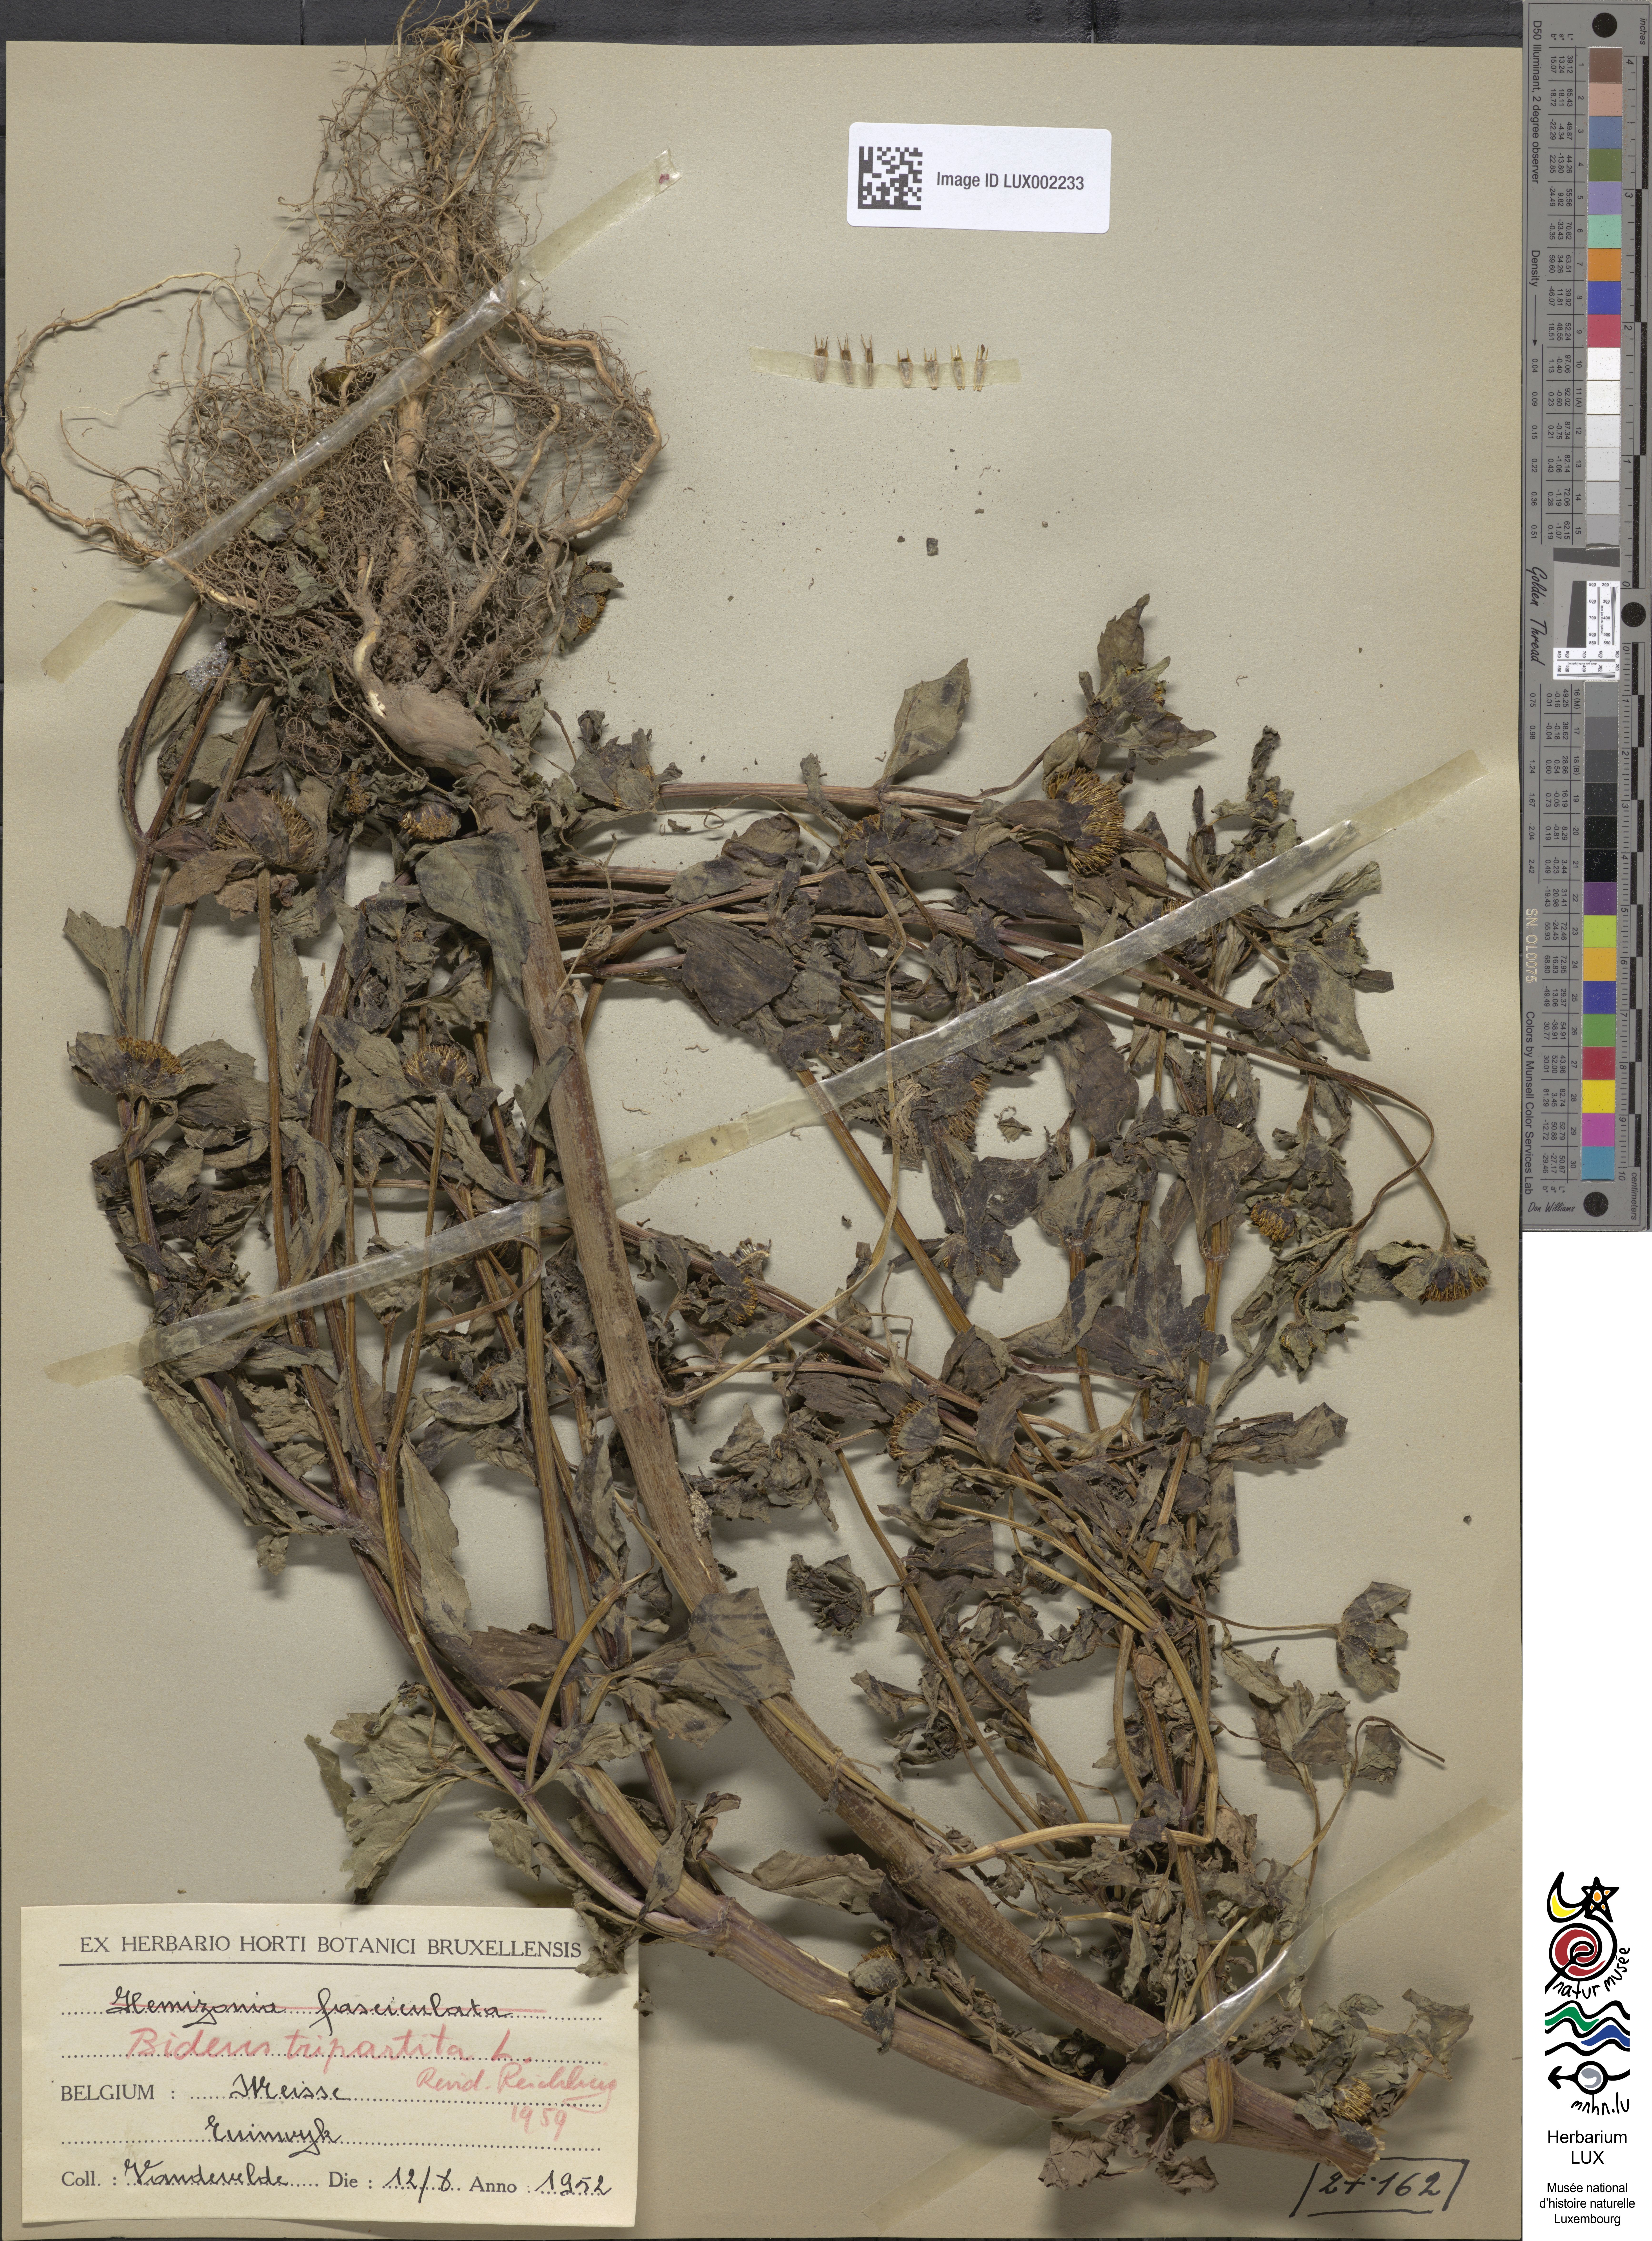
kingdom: Plantae
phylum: Tracheophyta
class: Magnoliopsida
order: Asterales
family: Asteraceae
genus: Bidens
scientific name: Bidens tripartita
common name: Trifid bur-marigold
